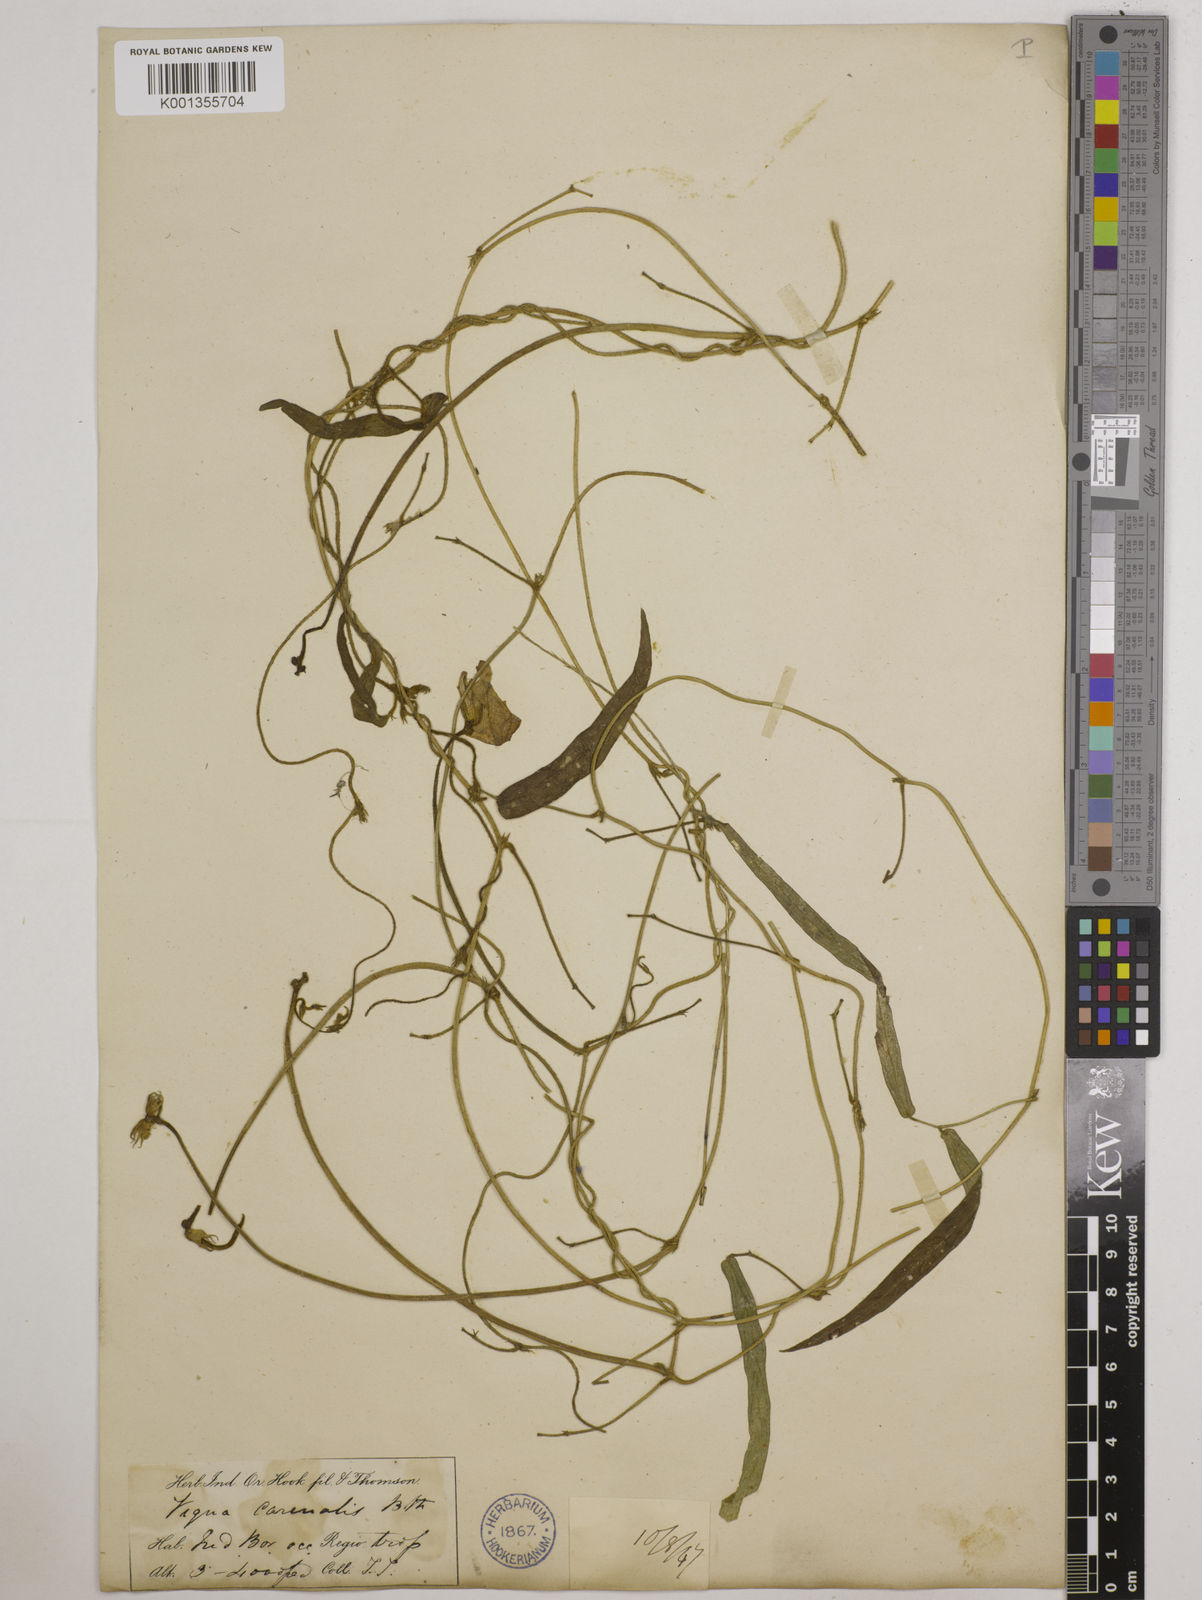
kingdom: Plantae
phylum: Tracheophyta
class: Magnoliopsida
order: Fabales
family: Fabaceae
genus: Vigna
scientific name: Vigna vexillata
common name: Zombi pea
